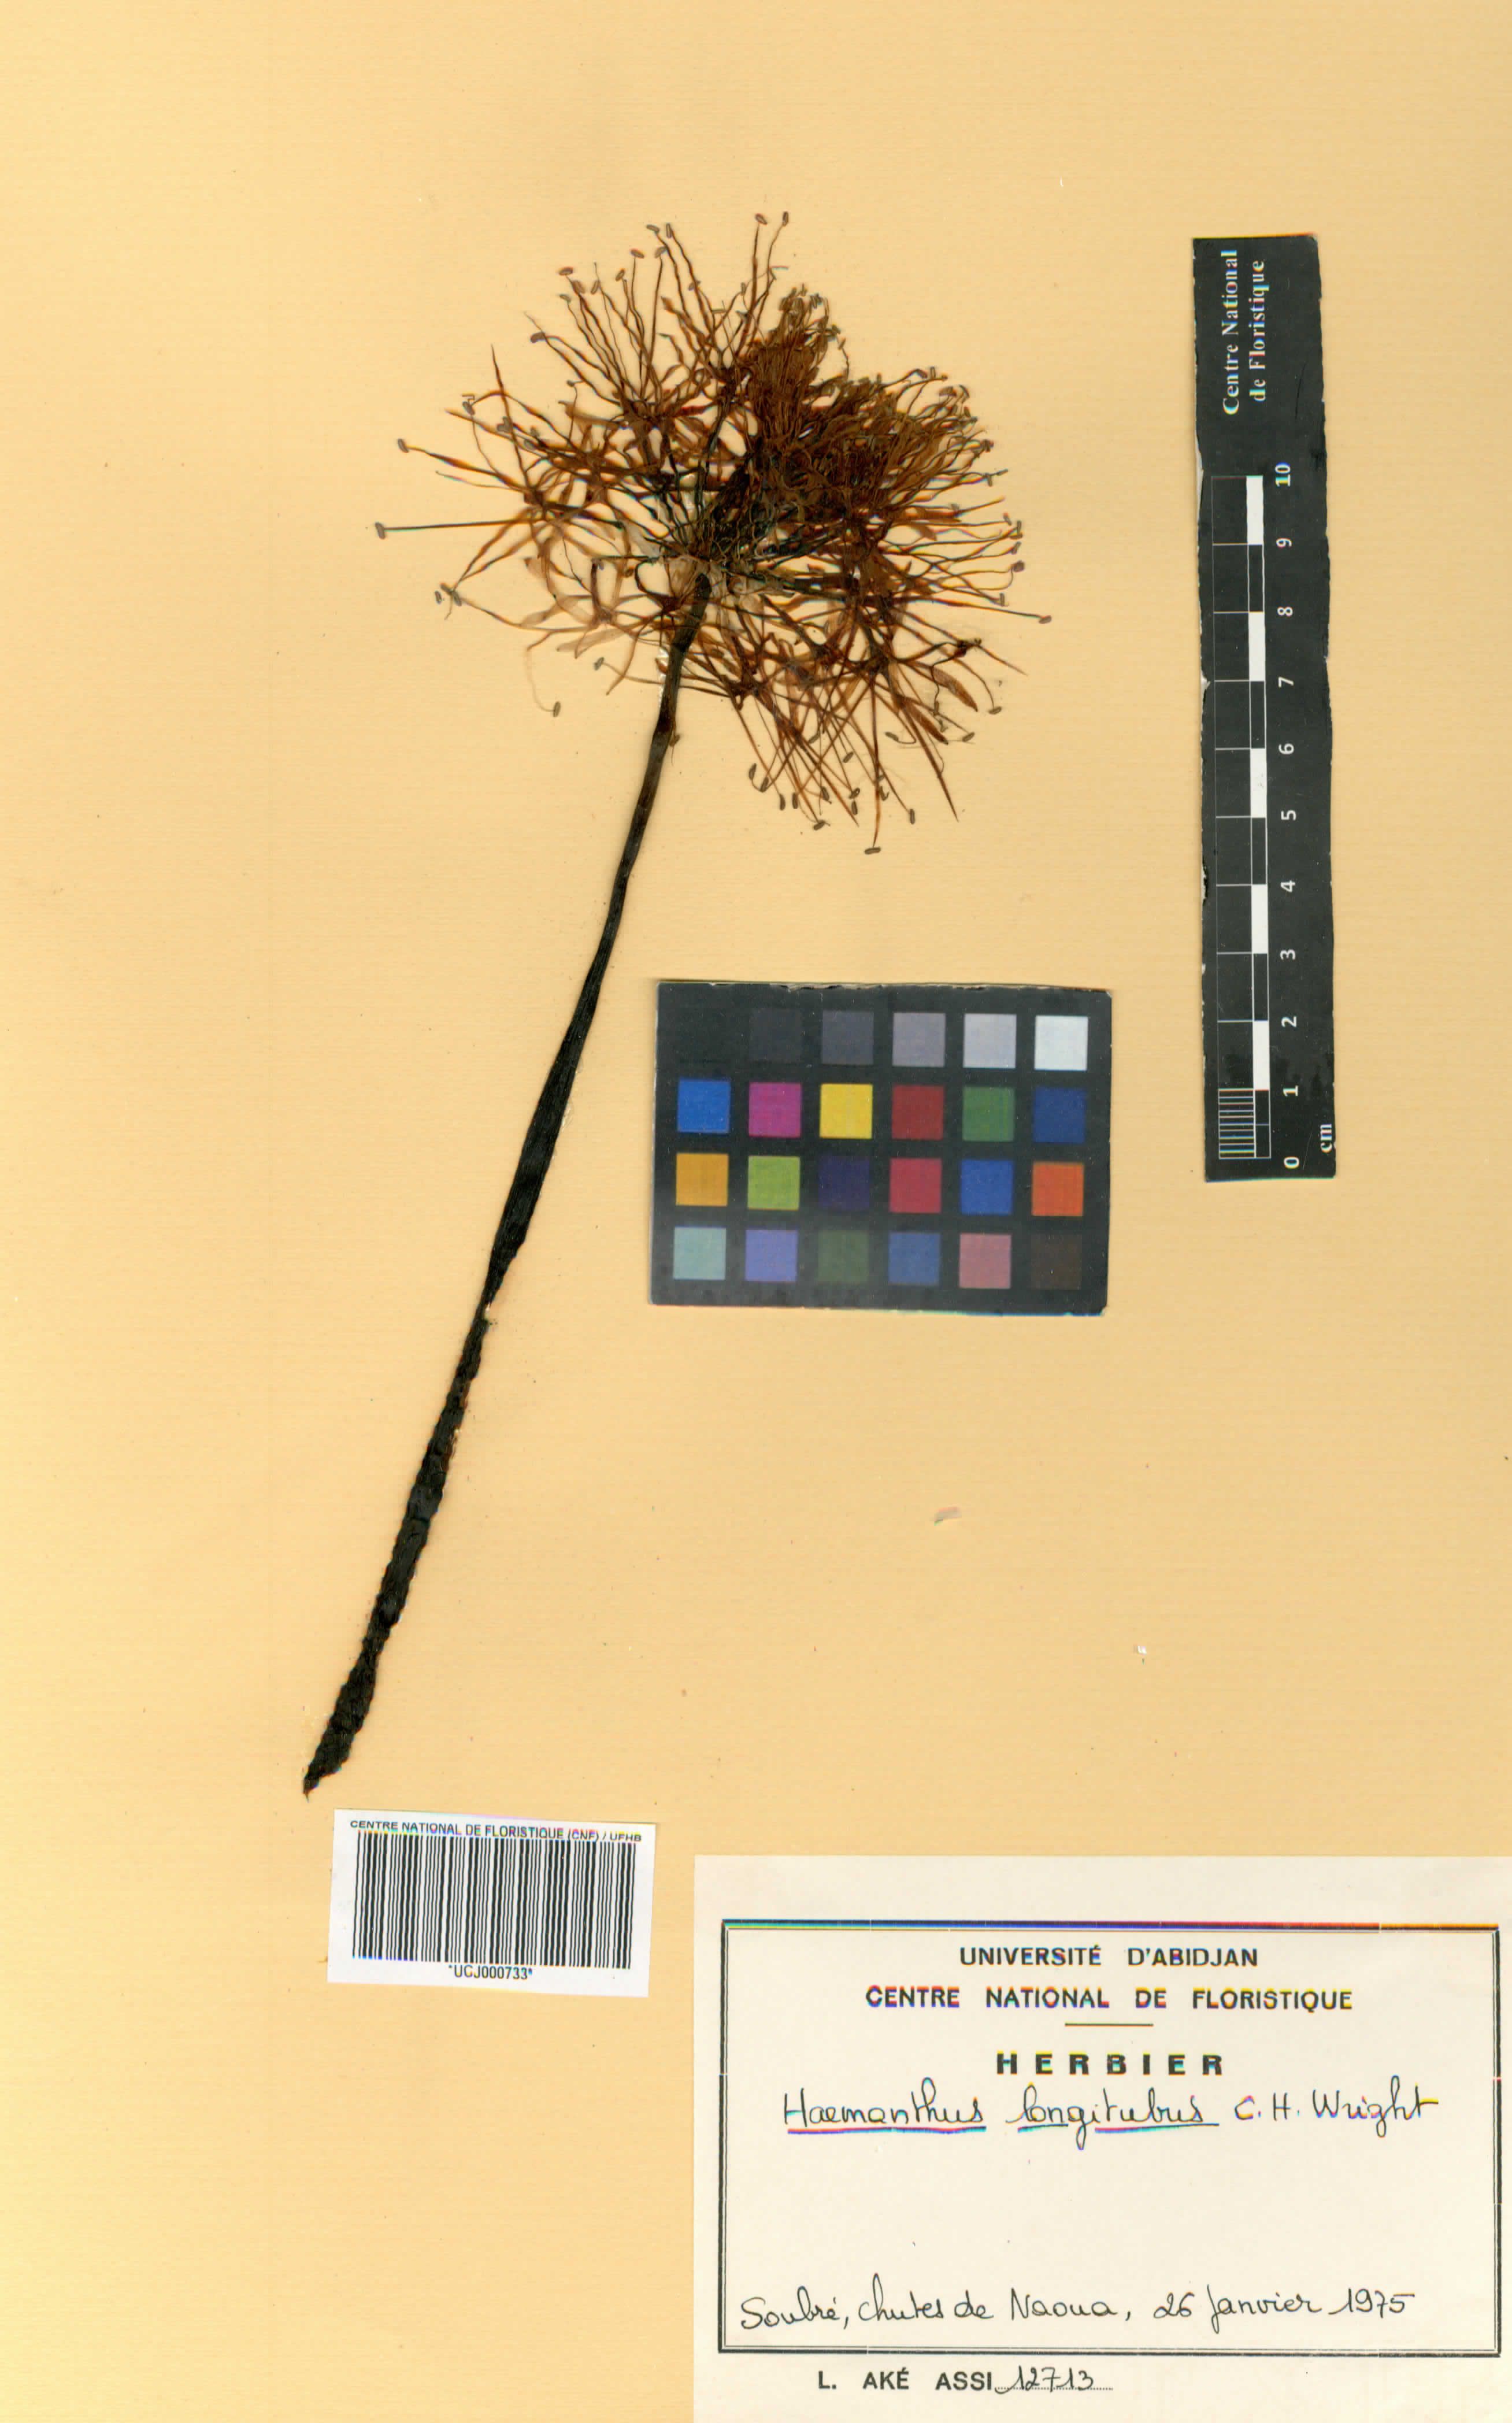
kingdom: Plantae
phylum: Tracheophyta
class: Liliopsida
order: Asparagales
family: Amaryllidaceae
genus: Scadoxus
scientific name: Scadoxus multiflorus
